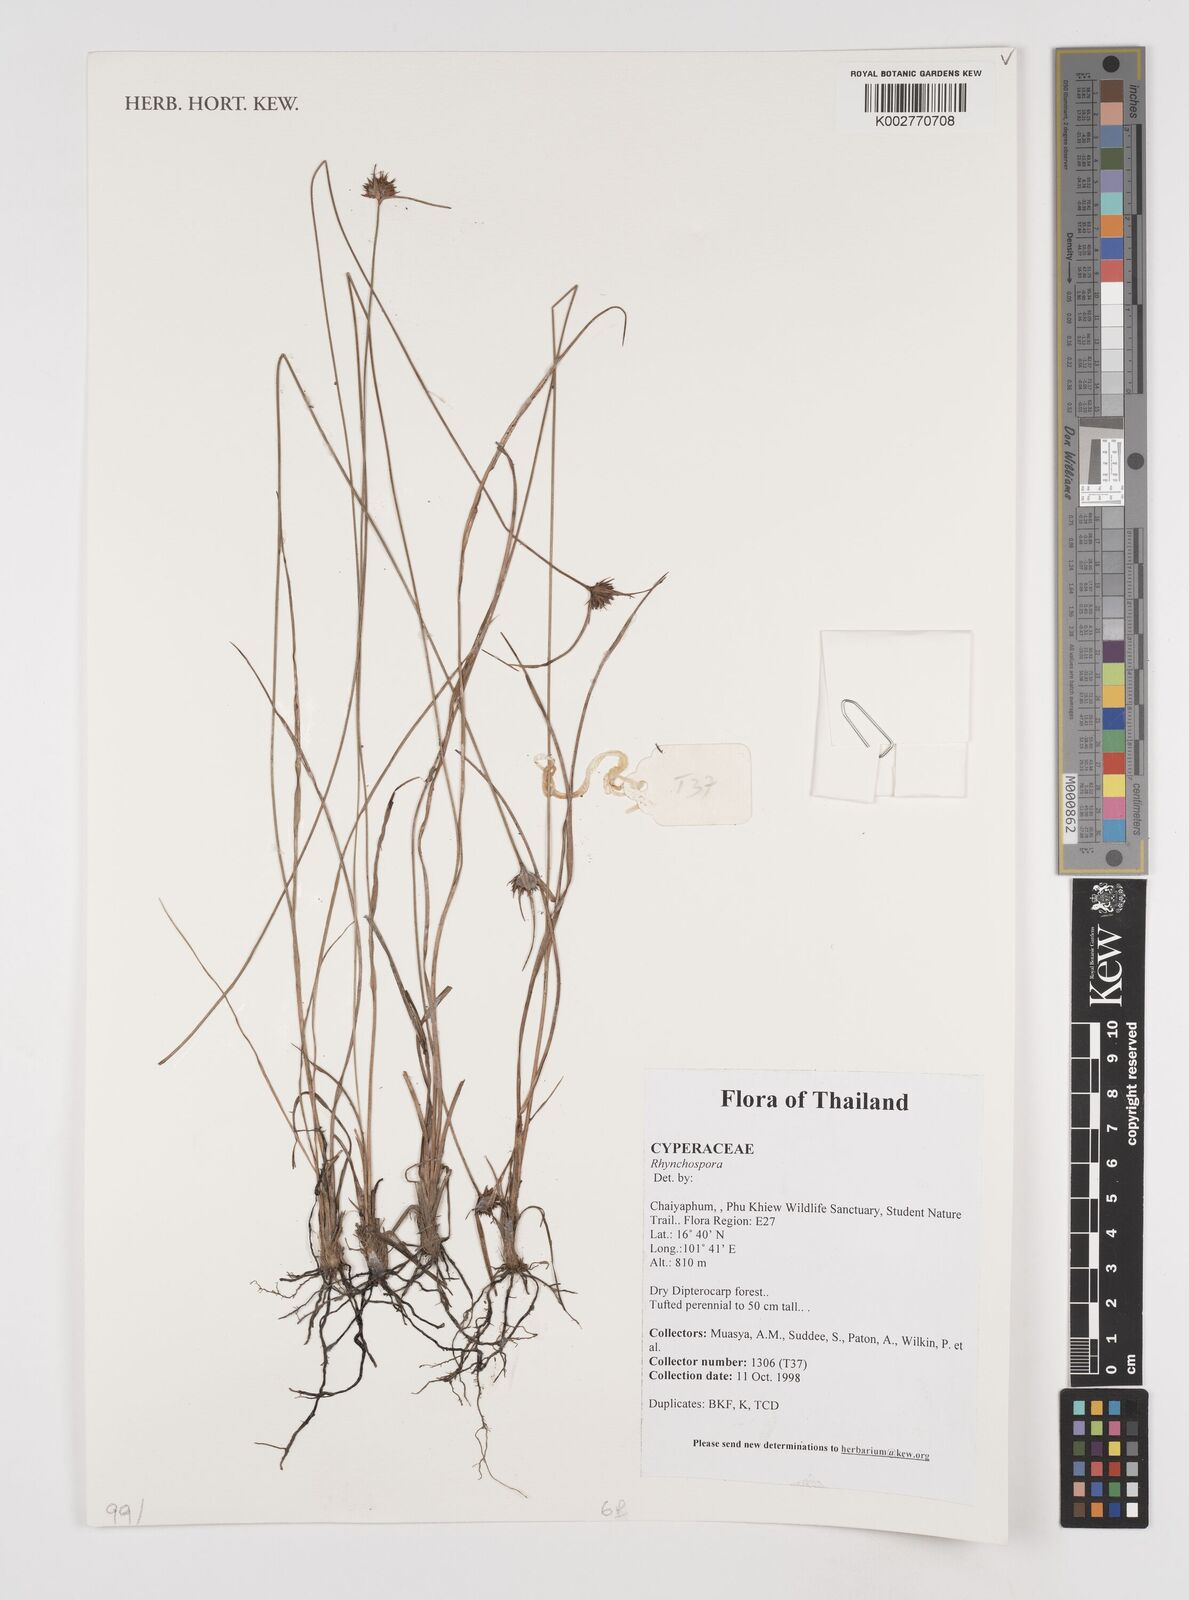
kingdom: Plantae
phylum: Tracheophyta
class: Liliopsida
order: Poales
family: Cyperaceae
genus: Rhynchospora
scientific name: Rhynchospora
